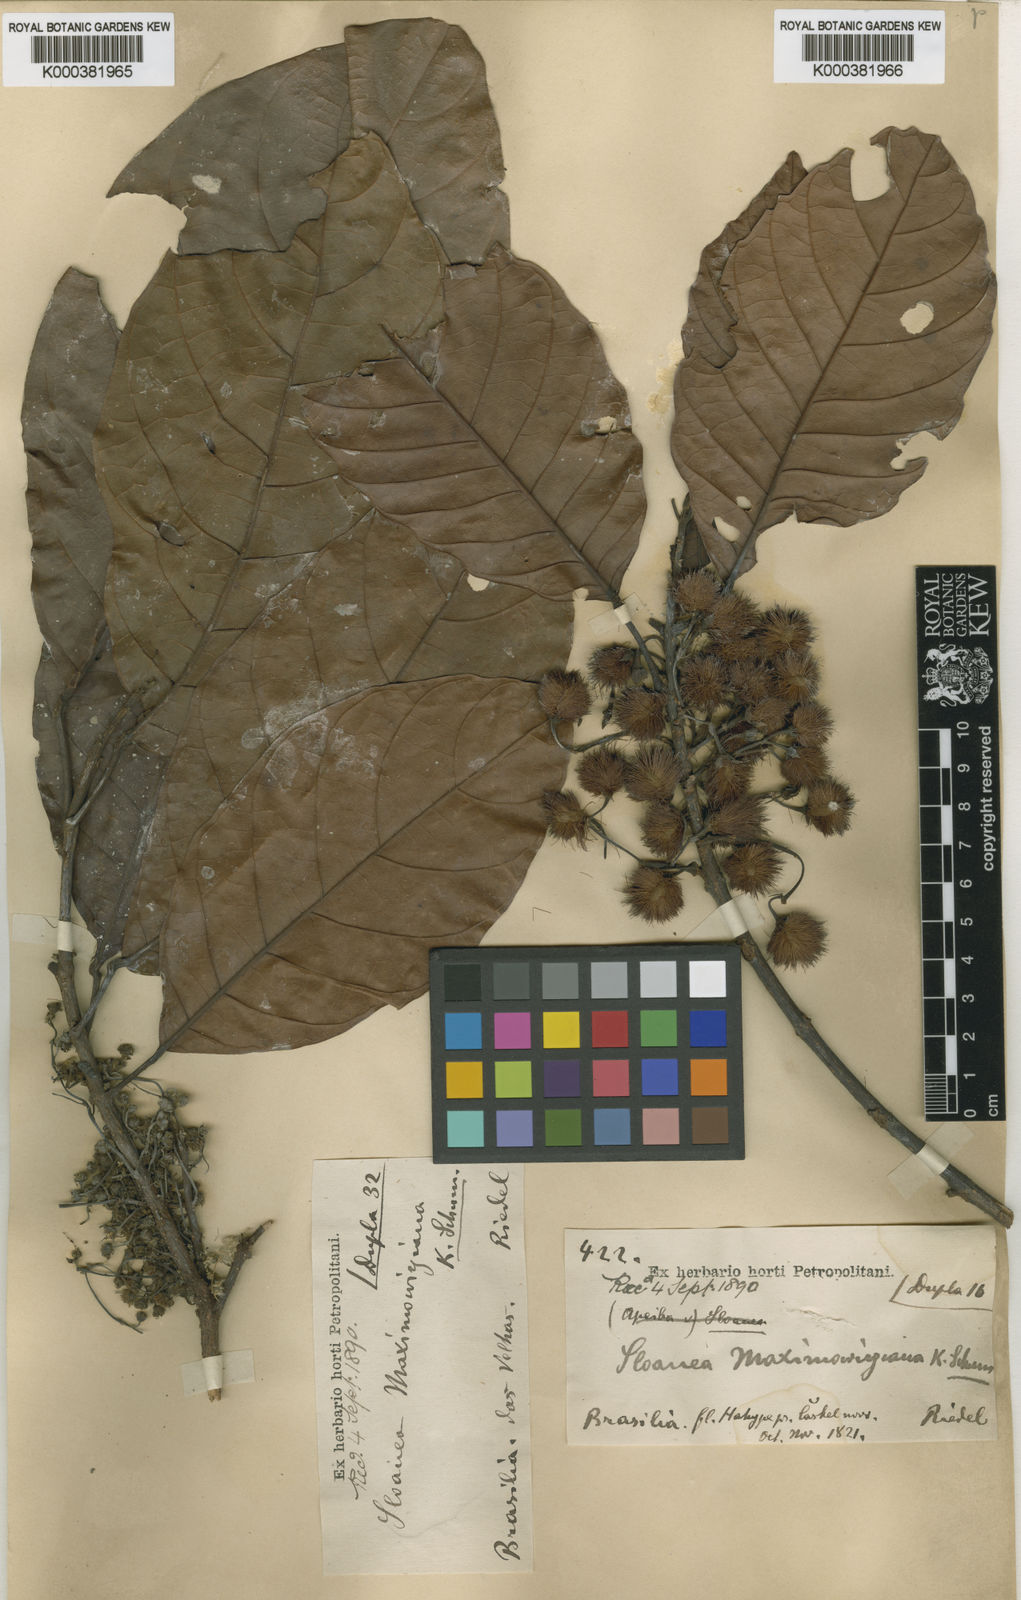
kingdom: Plantae
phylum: Tracheophyta
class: Magnoliopsida
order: Oxalidales
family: Elaeocarpaceae
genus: Sloanea
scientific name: Sloanea guianensis
